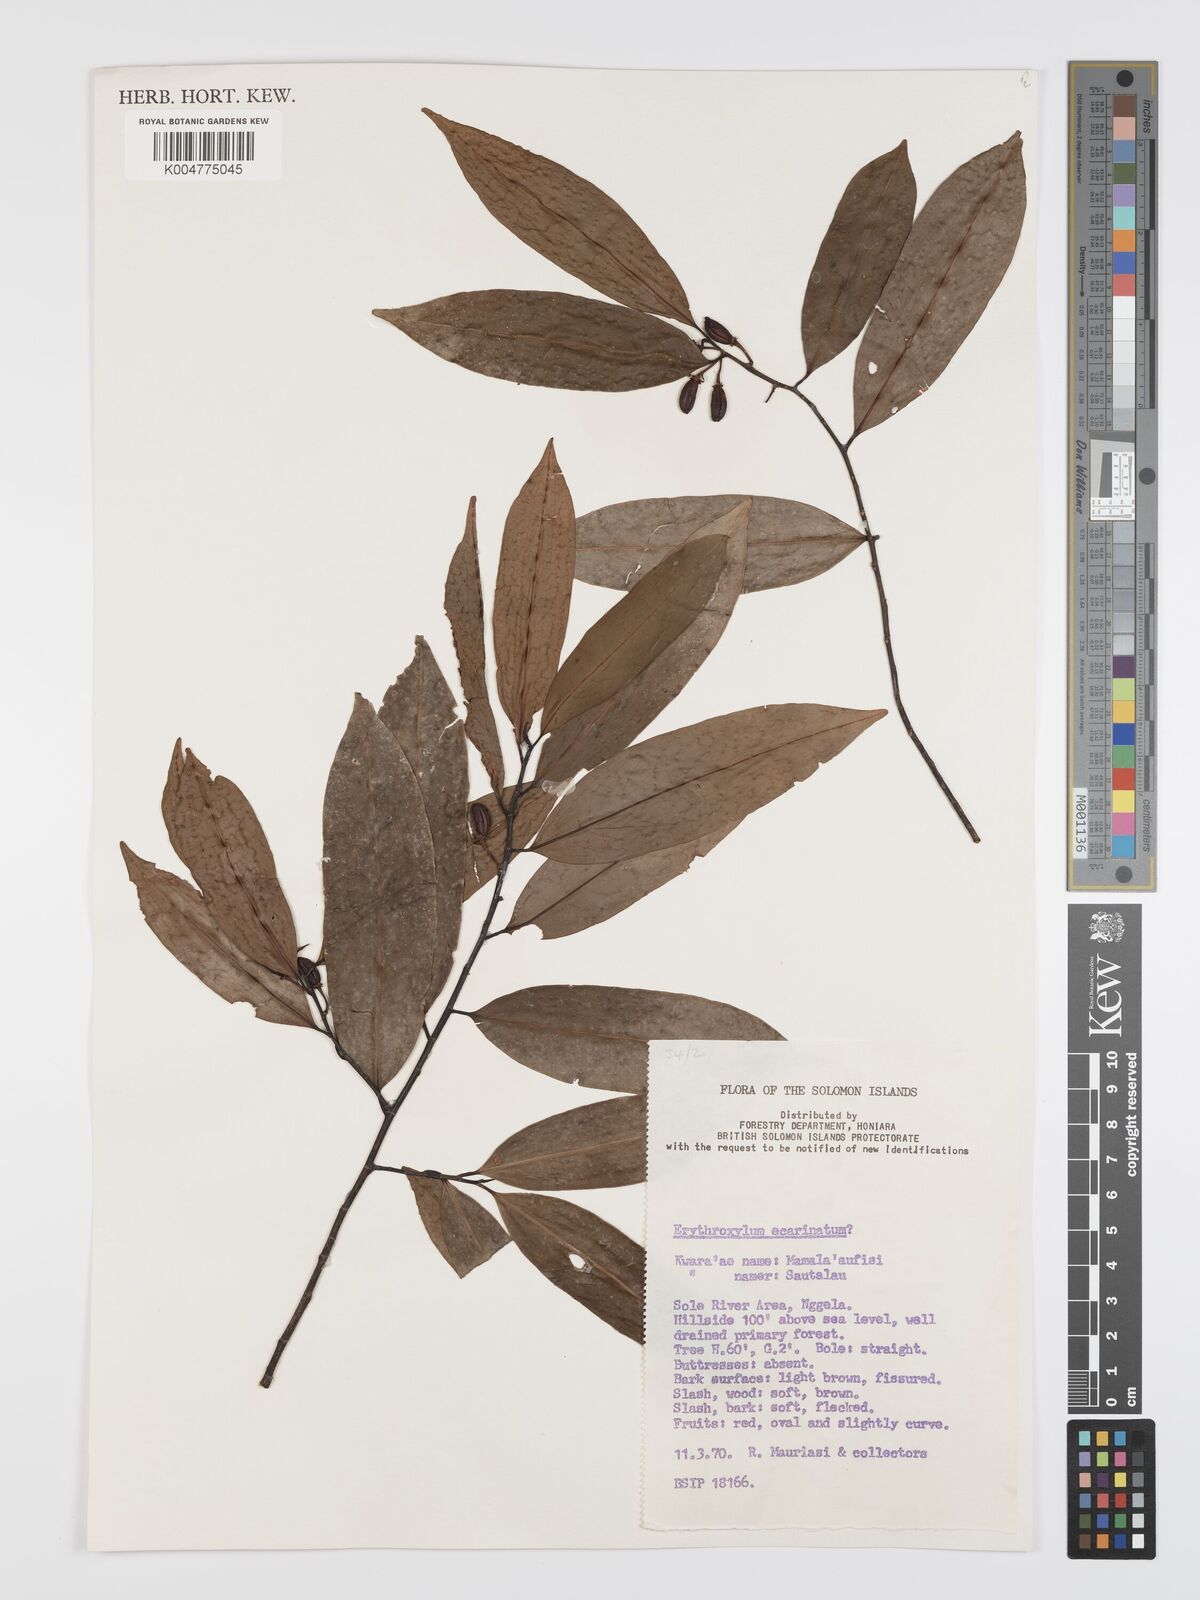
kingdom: Plantae
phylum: Tracheophyta
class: Magnoliopsida
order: Malpighiales
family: Erythroxylaceae
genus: Erythroxylum
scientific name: Erythroxylum ecarinatum
